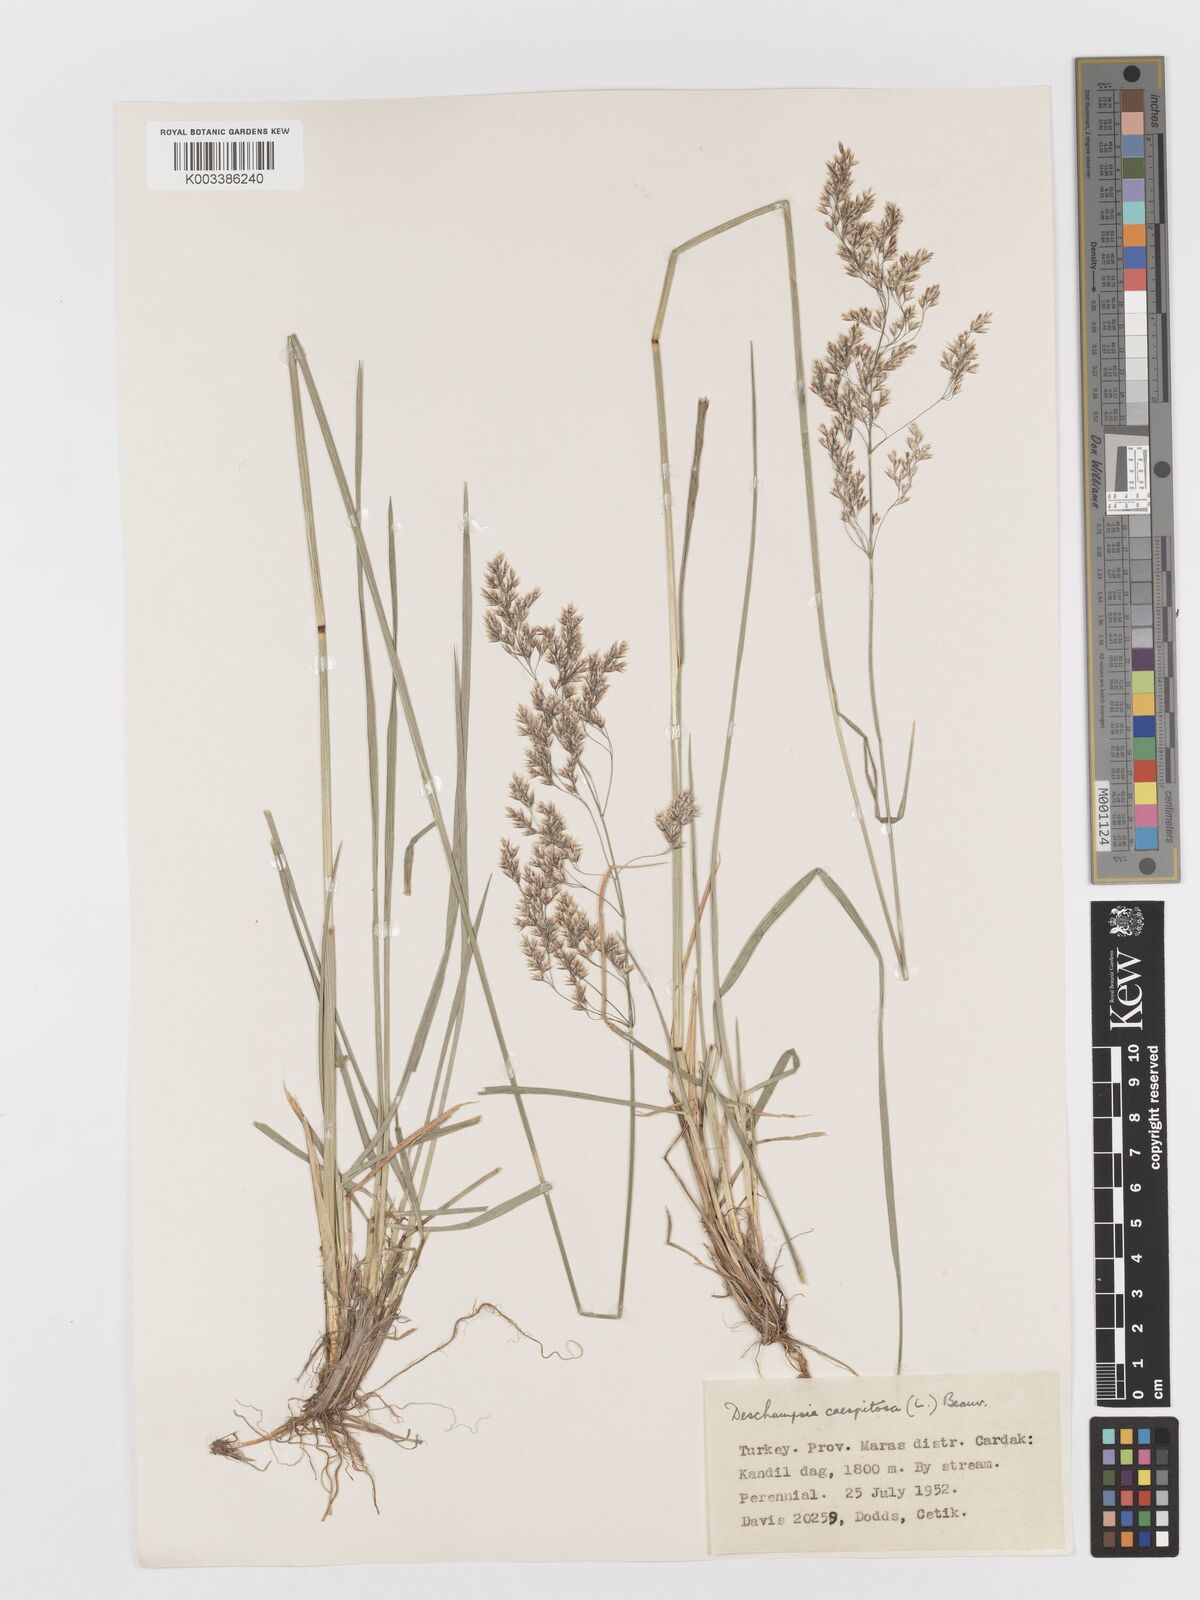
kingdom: Plantae
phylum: Tracheophyta
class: Liliopsida
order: Poales
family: Poaceae
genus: Deschampsia
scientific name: Deschampsia cespitosa
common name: Tufted hair-grass
